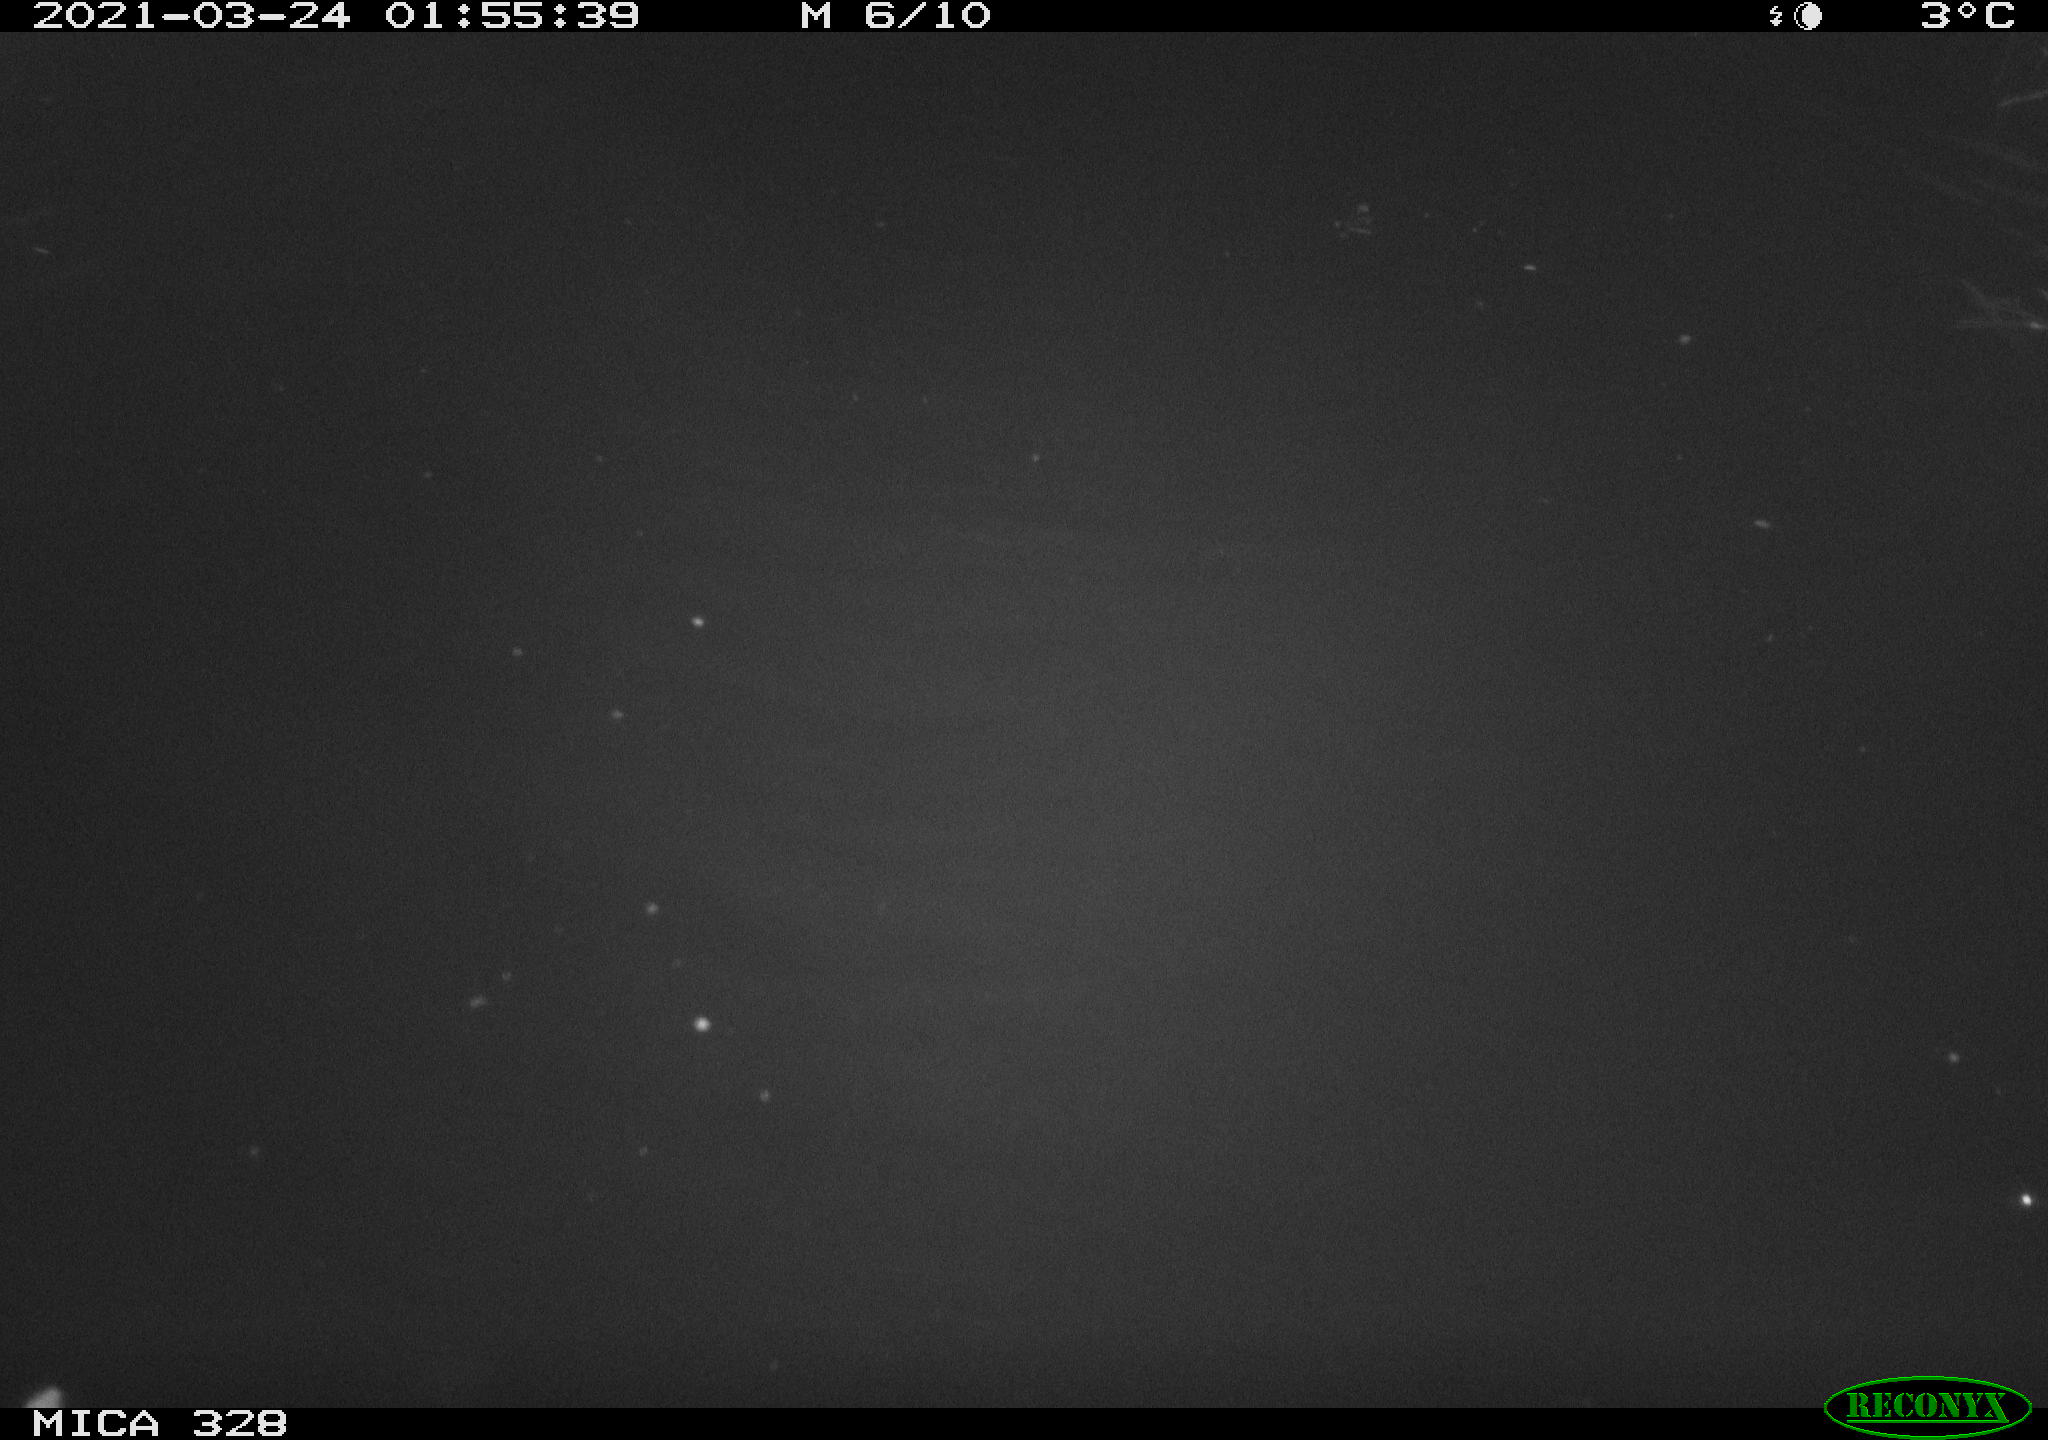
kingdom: Animalia
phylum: Chordata
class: Mammalia
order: Rodentia
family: Cricetidae
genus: Ondatra
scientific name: Ondatra zibethicus
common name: Muskrat
